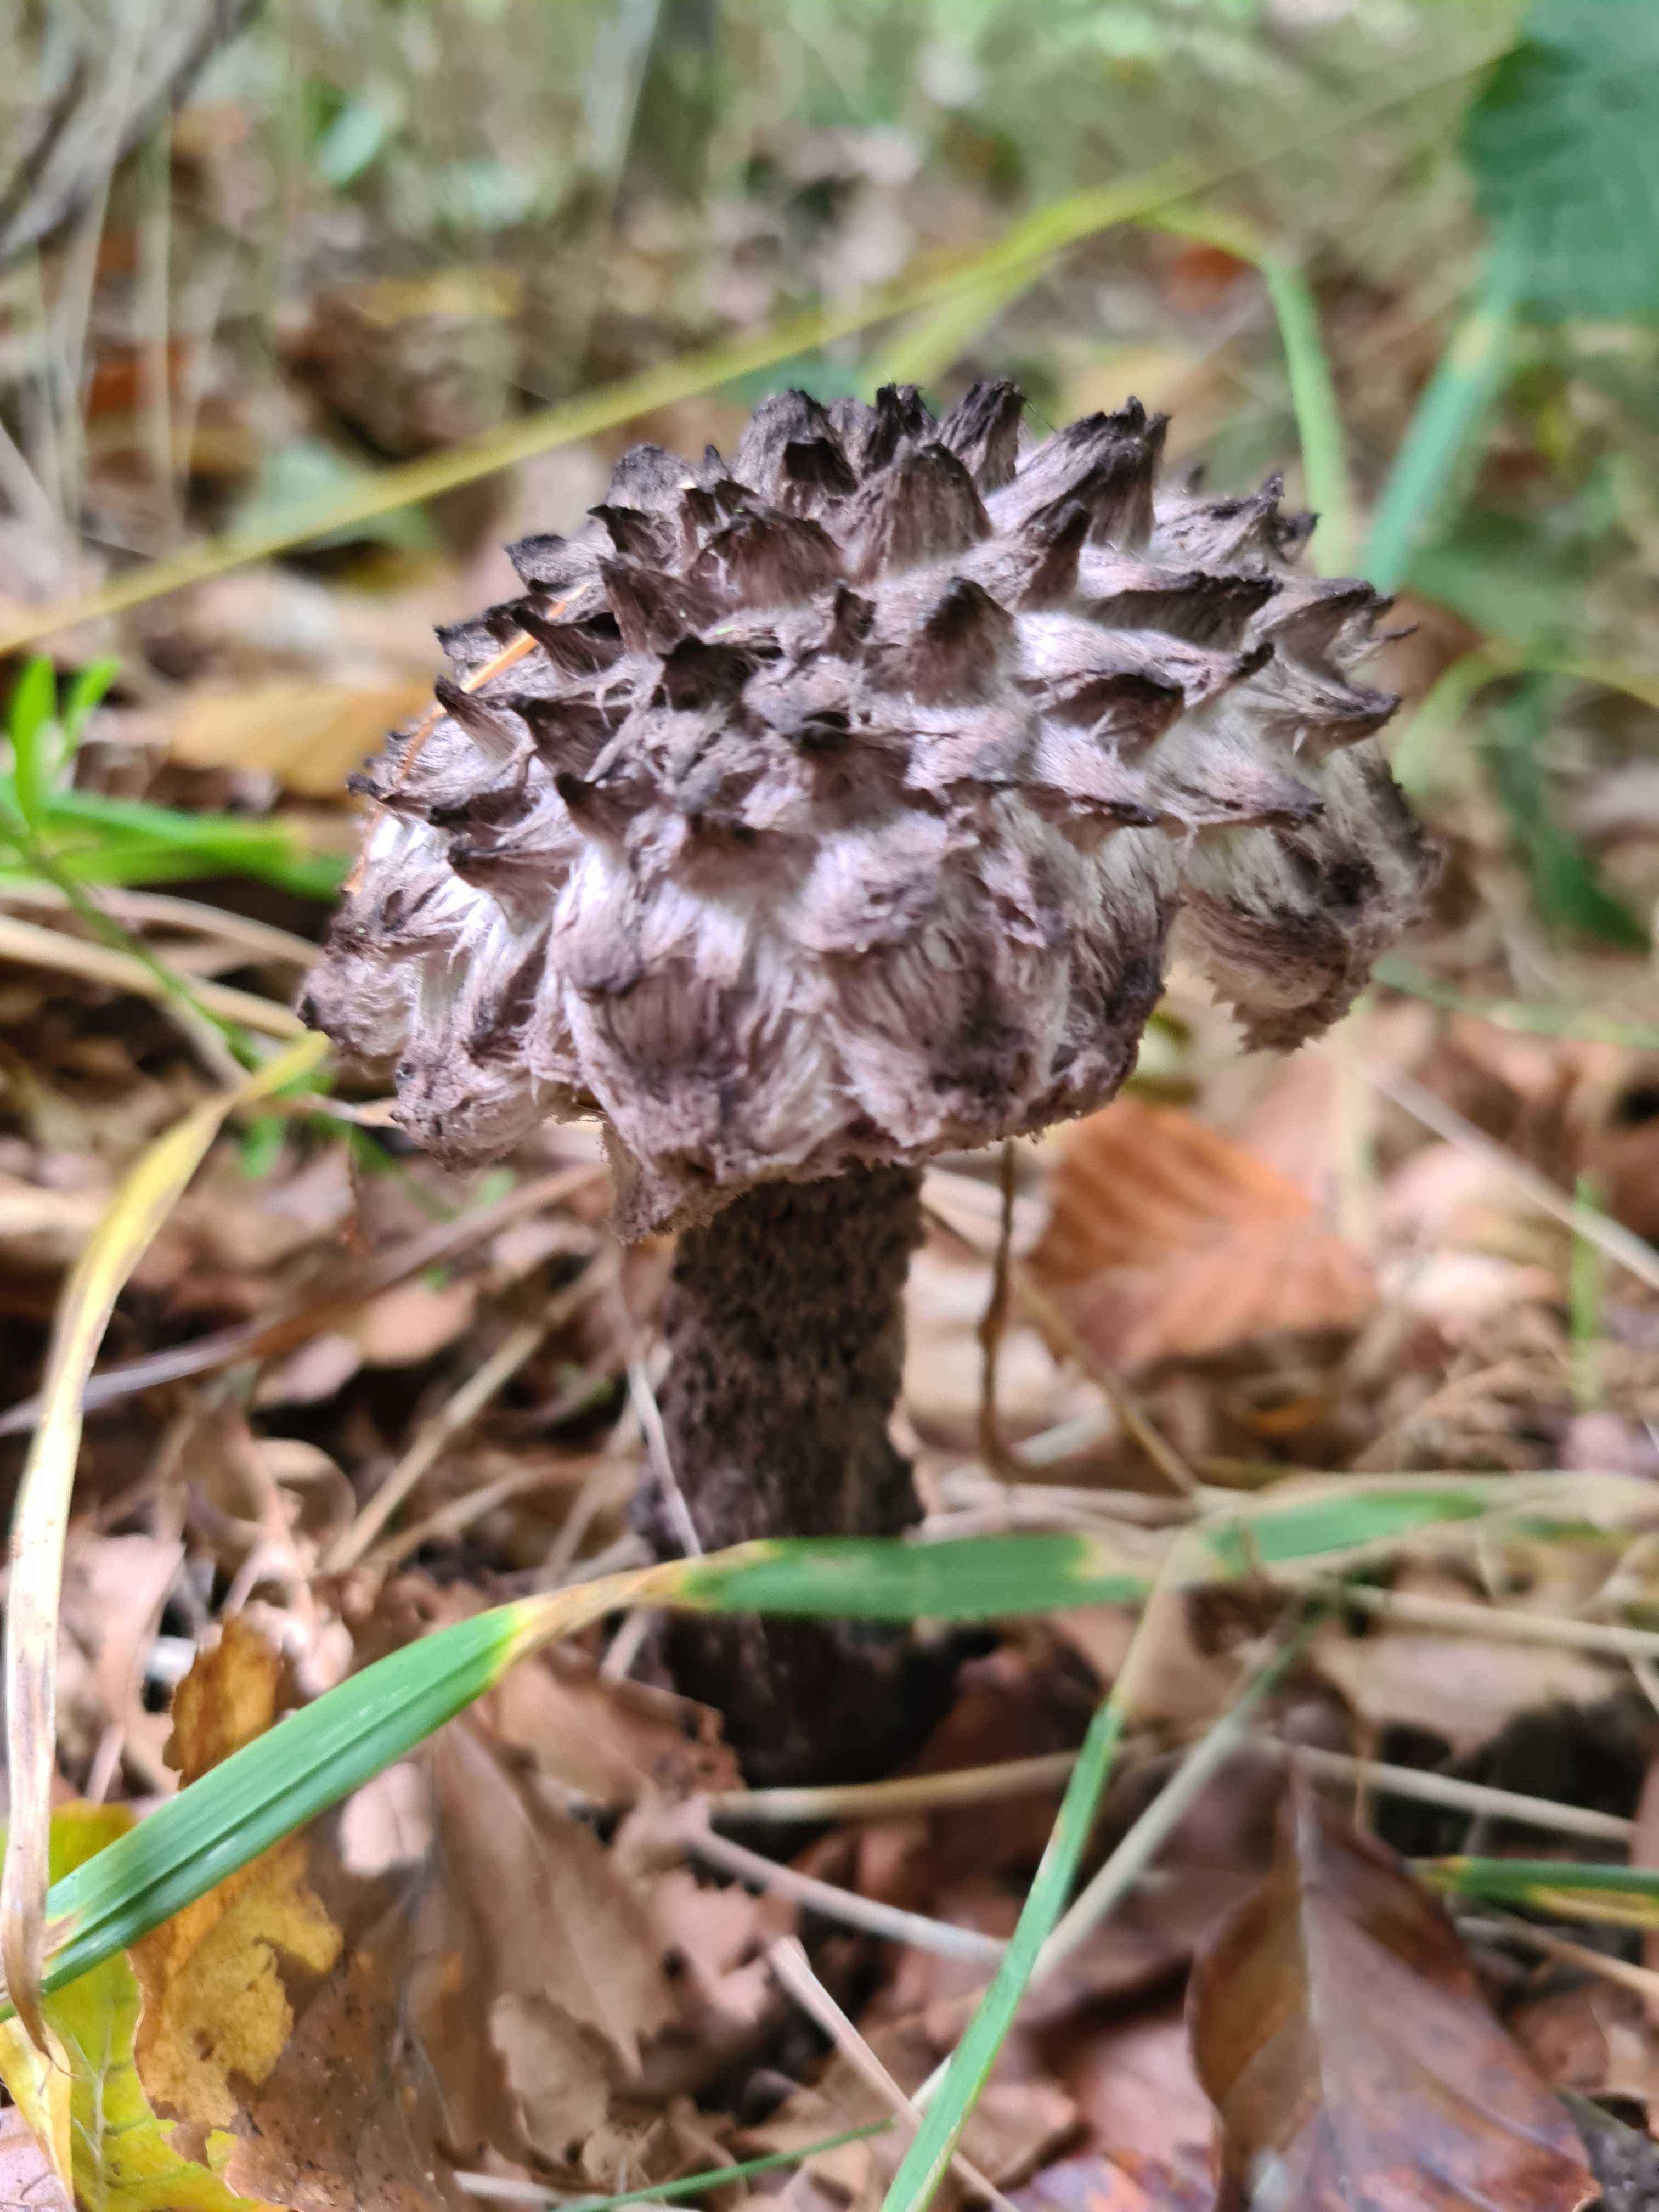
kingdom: Fungi
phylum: Basidiomycota
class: Agaricomycetes
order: Boletales
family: Boletaceae
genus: Strobilomyces
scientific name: Strobilomyces strobilaceus
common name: koglerørhat
